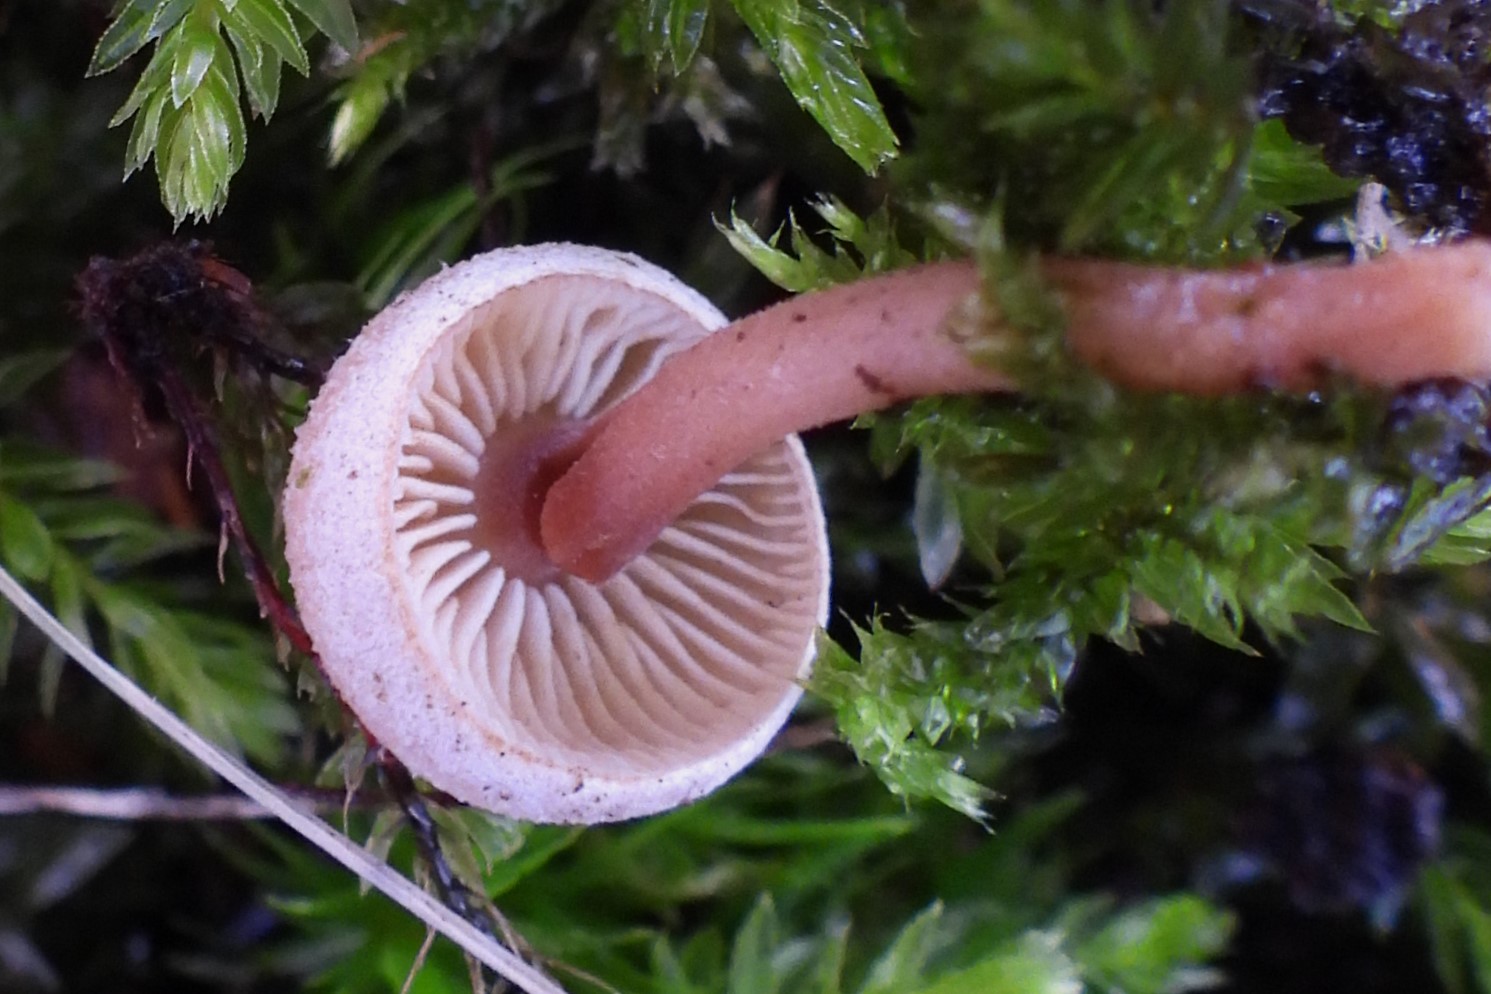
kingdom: Fungi
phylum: Basidiomycota
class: Agaricomycetes
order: Agaricales
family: Inocybaceae
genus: Inocybe
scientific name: Inocybe petiginosa
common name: liden trævlhat
